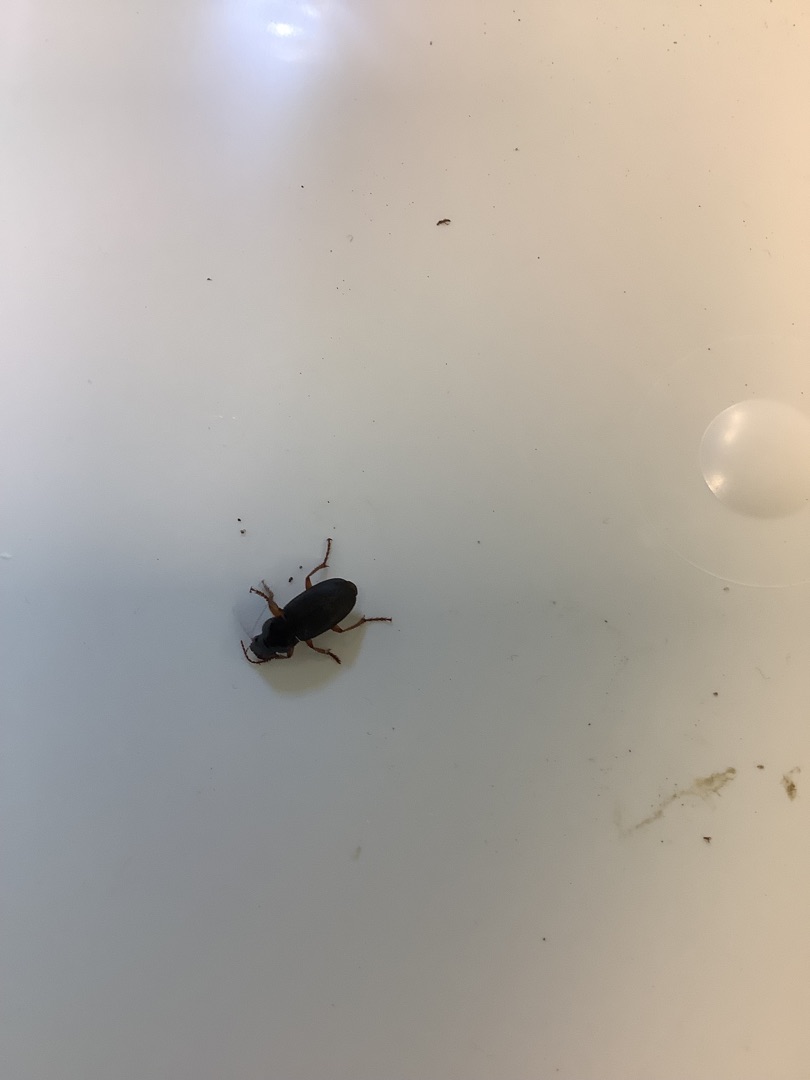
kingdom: Animalia
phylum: Arthropoda
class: Insecta
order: Coleoptera
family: Carabidae
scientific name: Carabidae
